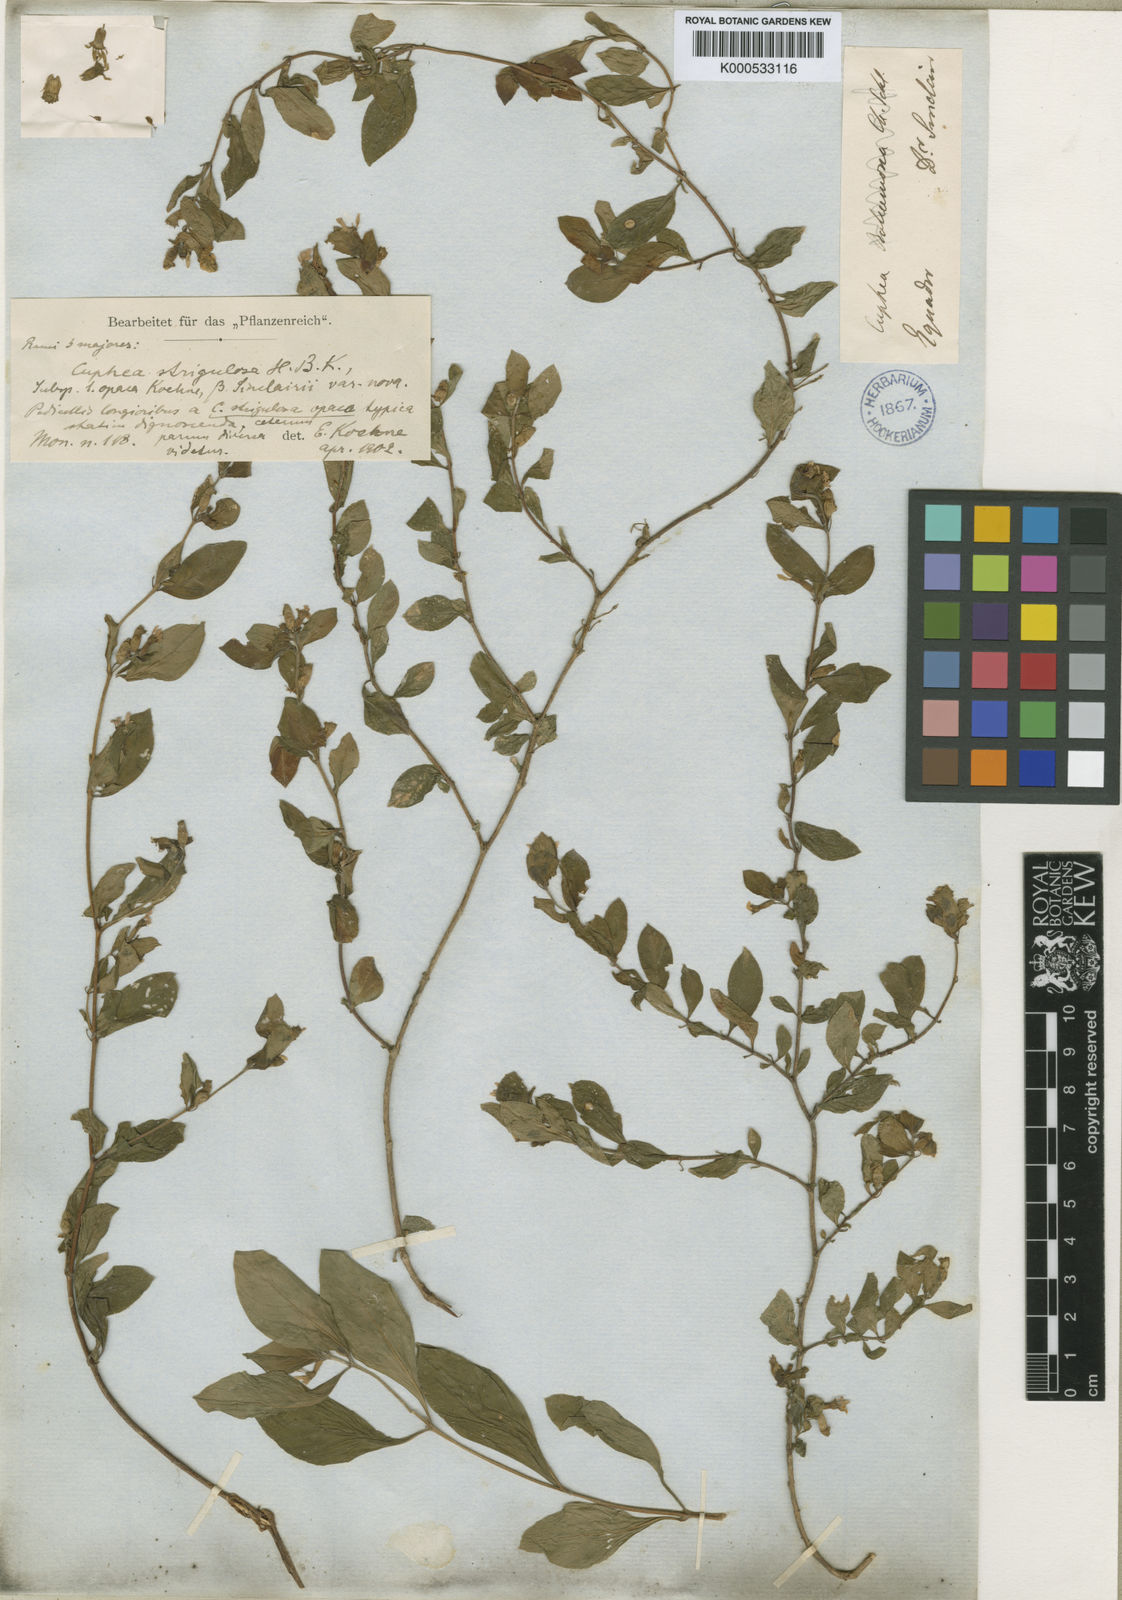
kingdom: Plantae
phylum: Tracheophyta
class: Magnoliopsida
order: Myrtales
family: Lythraceae
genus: Cuphea
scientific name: Cuphea strigulosa
